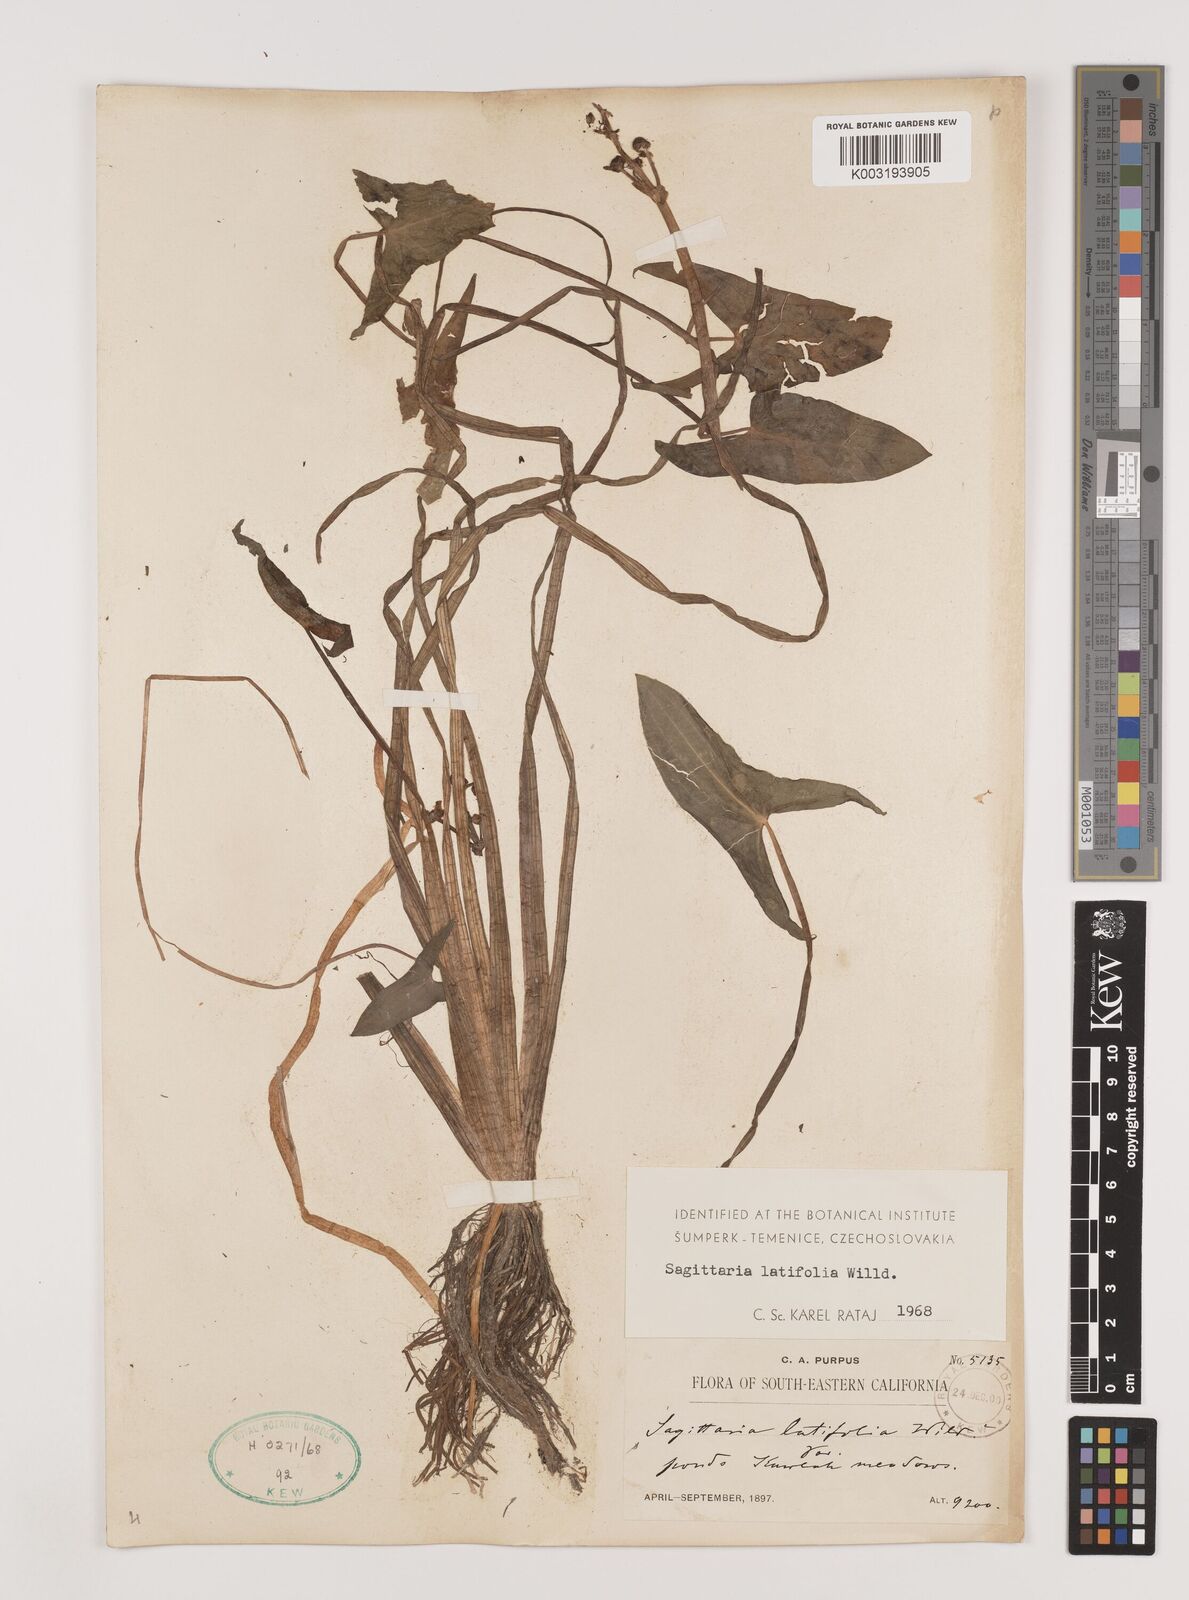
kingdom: Plantae
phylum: Tracheophyta
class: Liliopsida
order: Alismatales
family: Alismataceae
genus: Sagittaria
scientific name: Sagittaria latifolia
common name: Duck-potato
